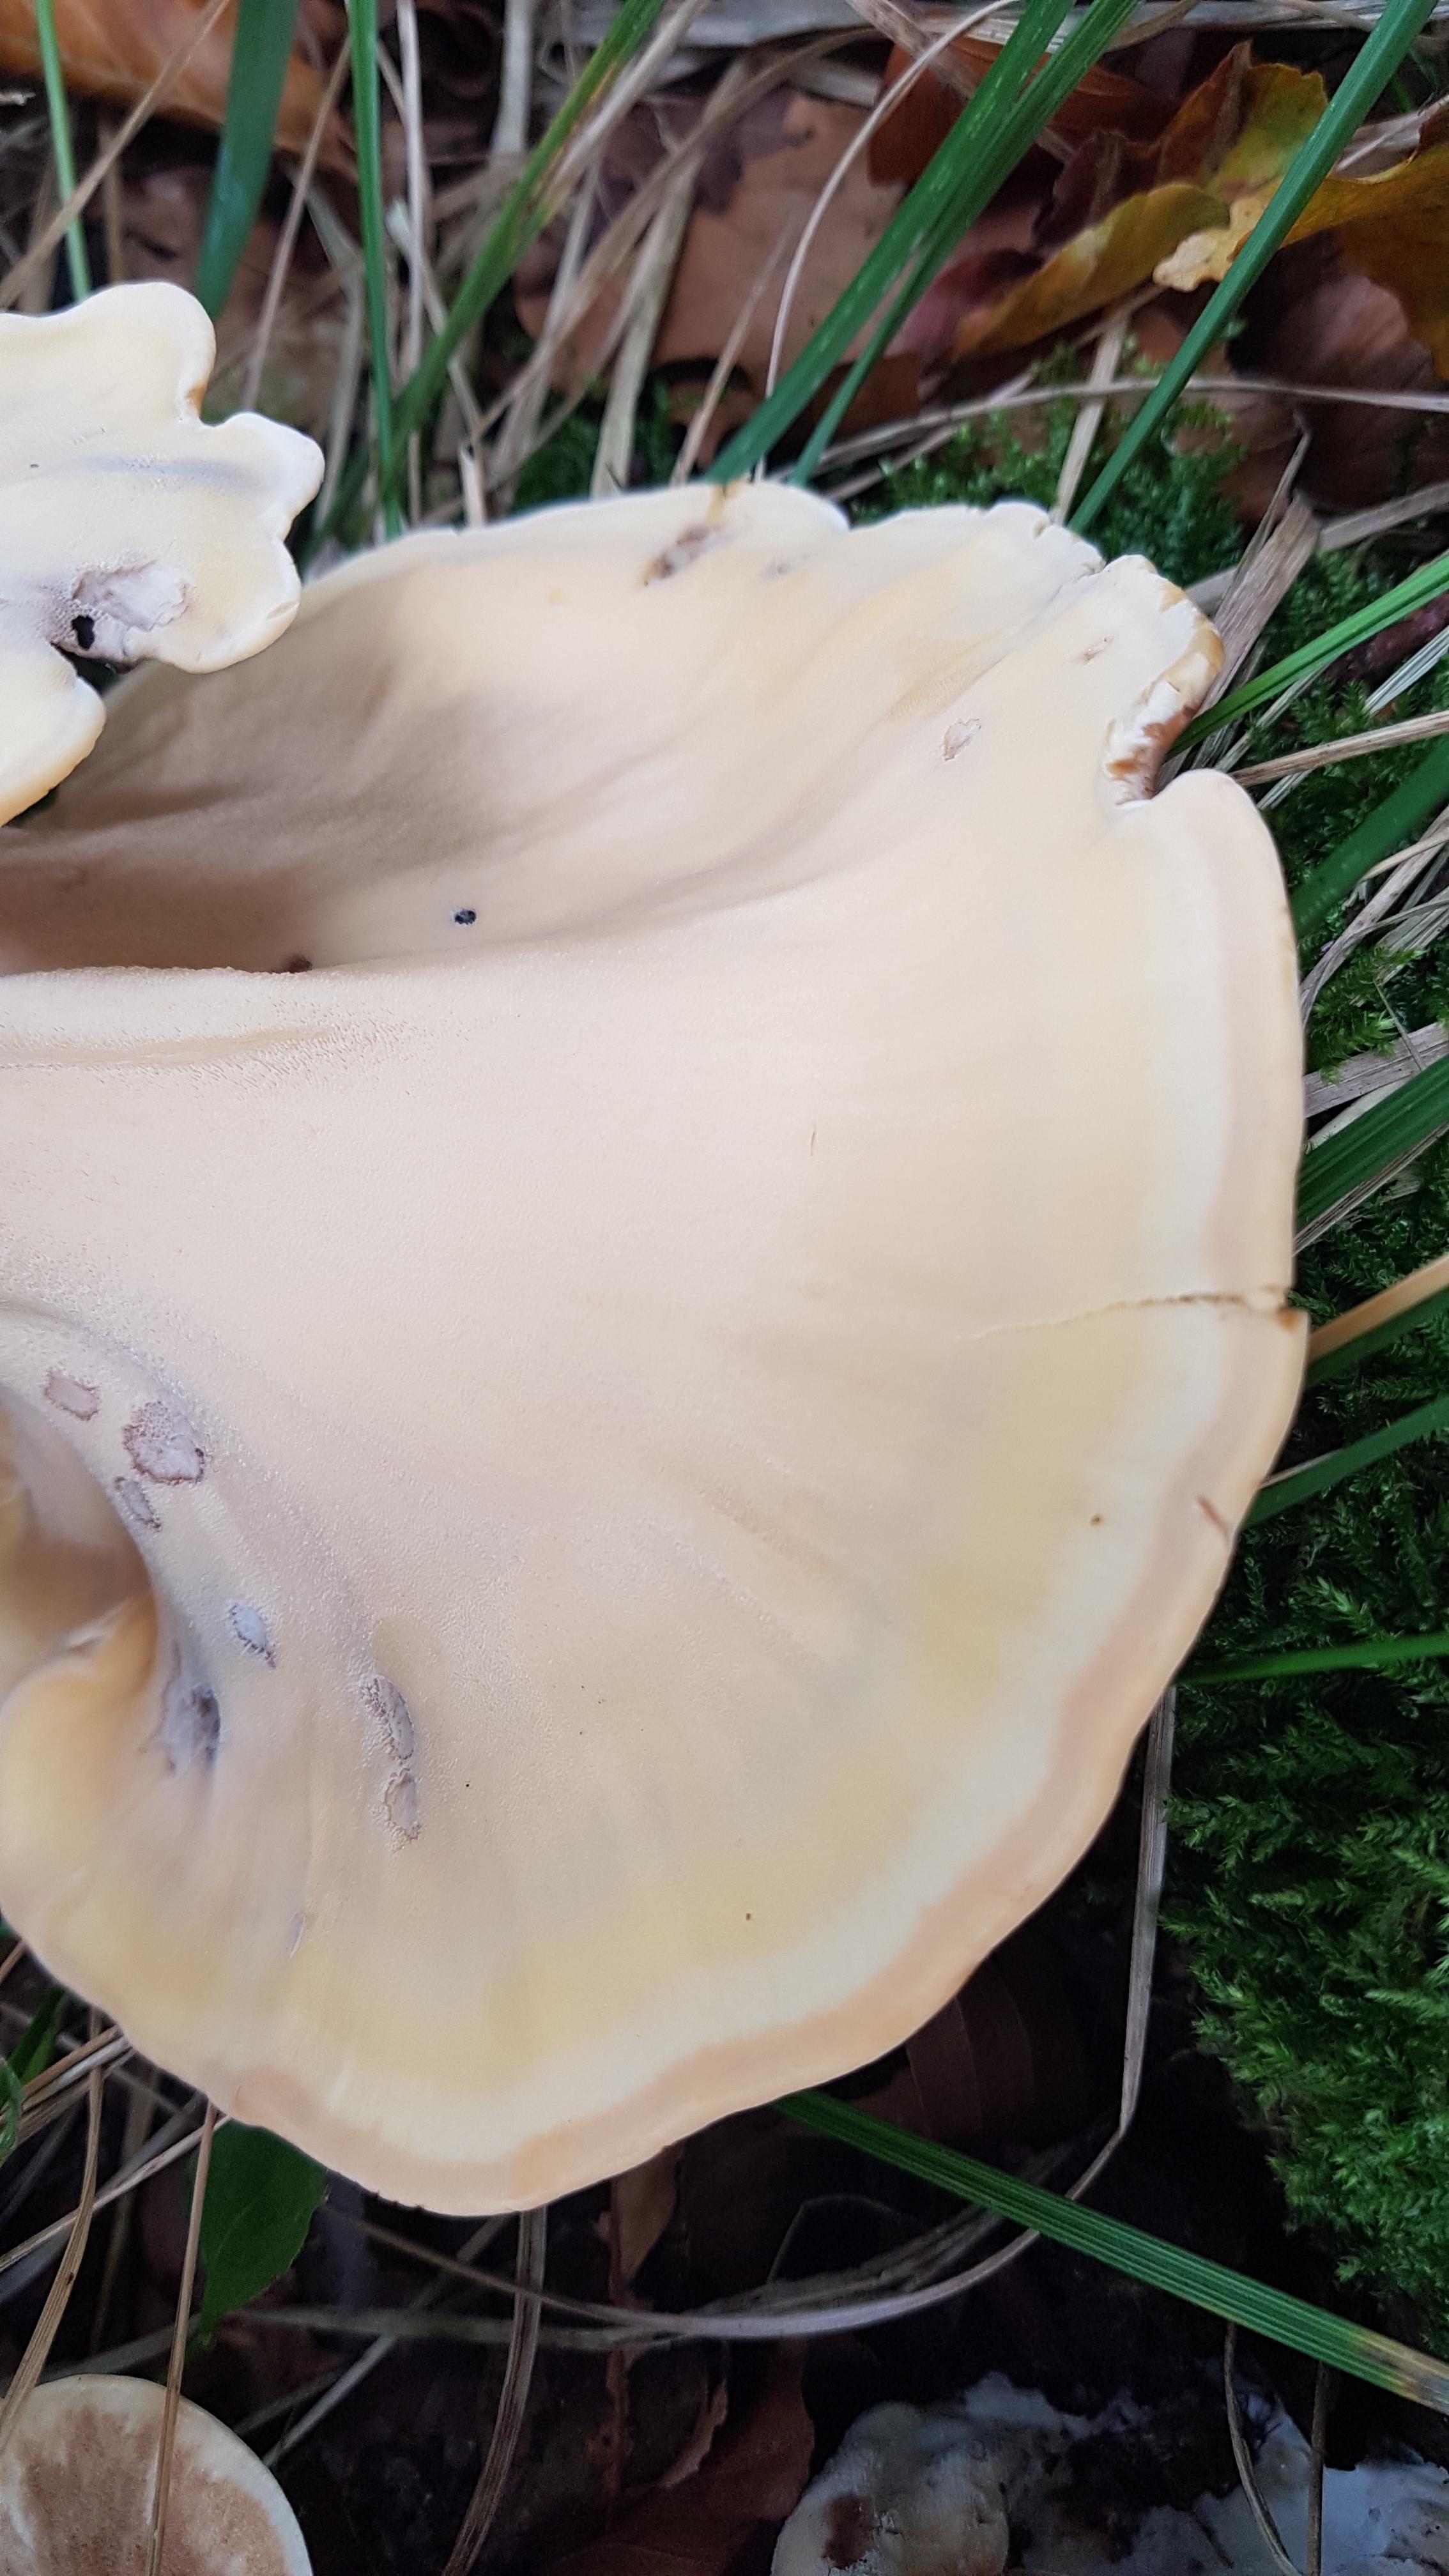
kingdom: Fungi
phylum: Basidiomycota
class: Agaricomycetes
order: Polyporales
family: Meripilaceae
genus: Meripilus
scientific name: Meripilus giganteus
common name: kæmpeporesvamp
